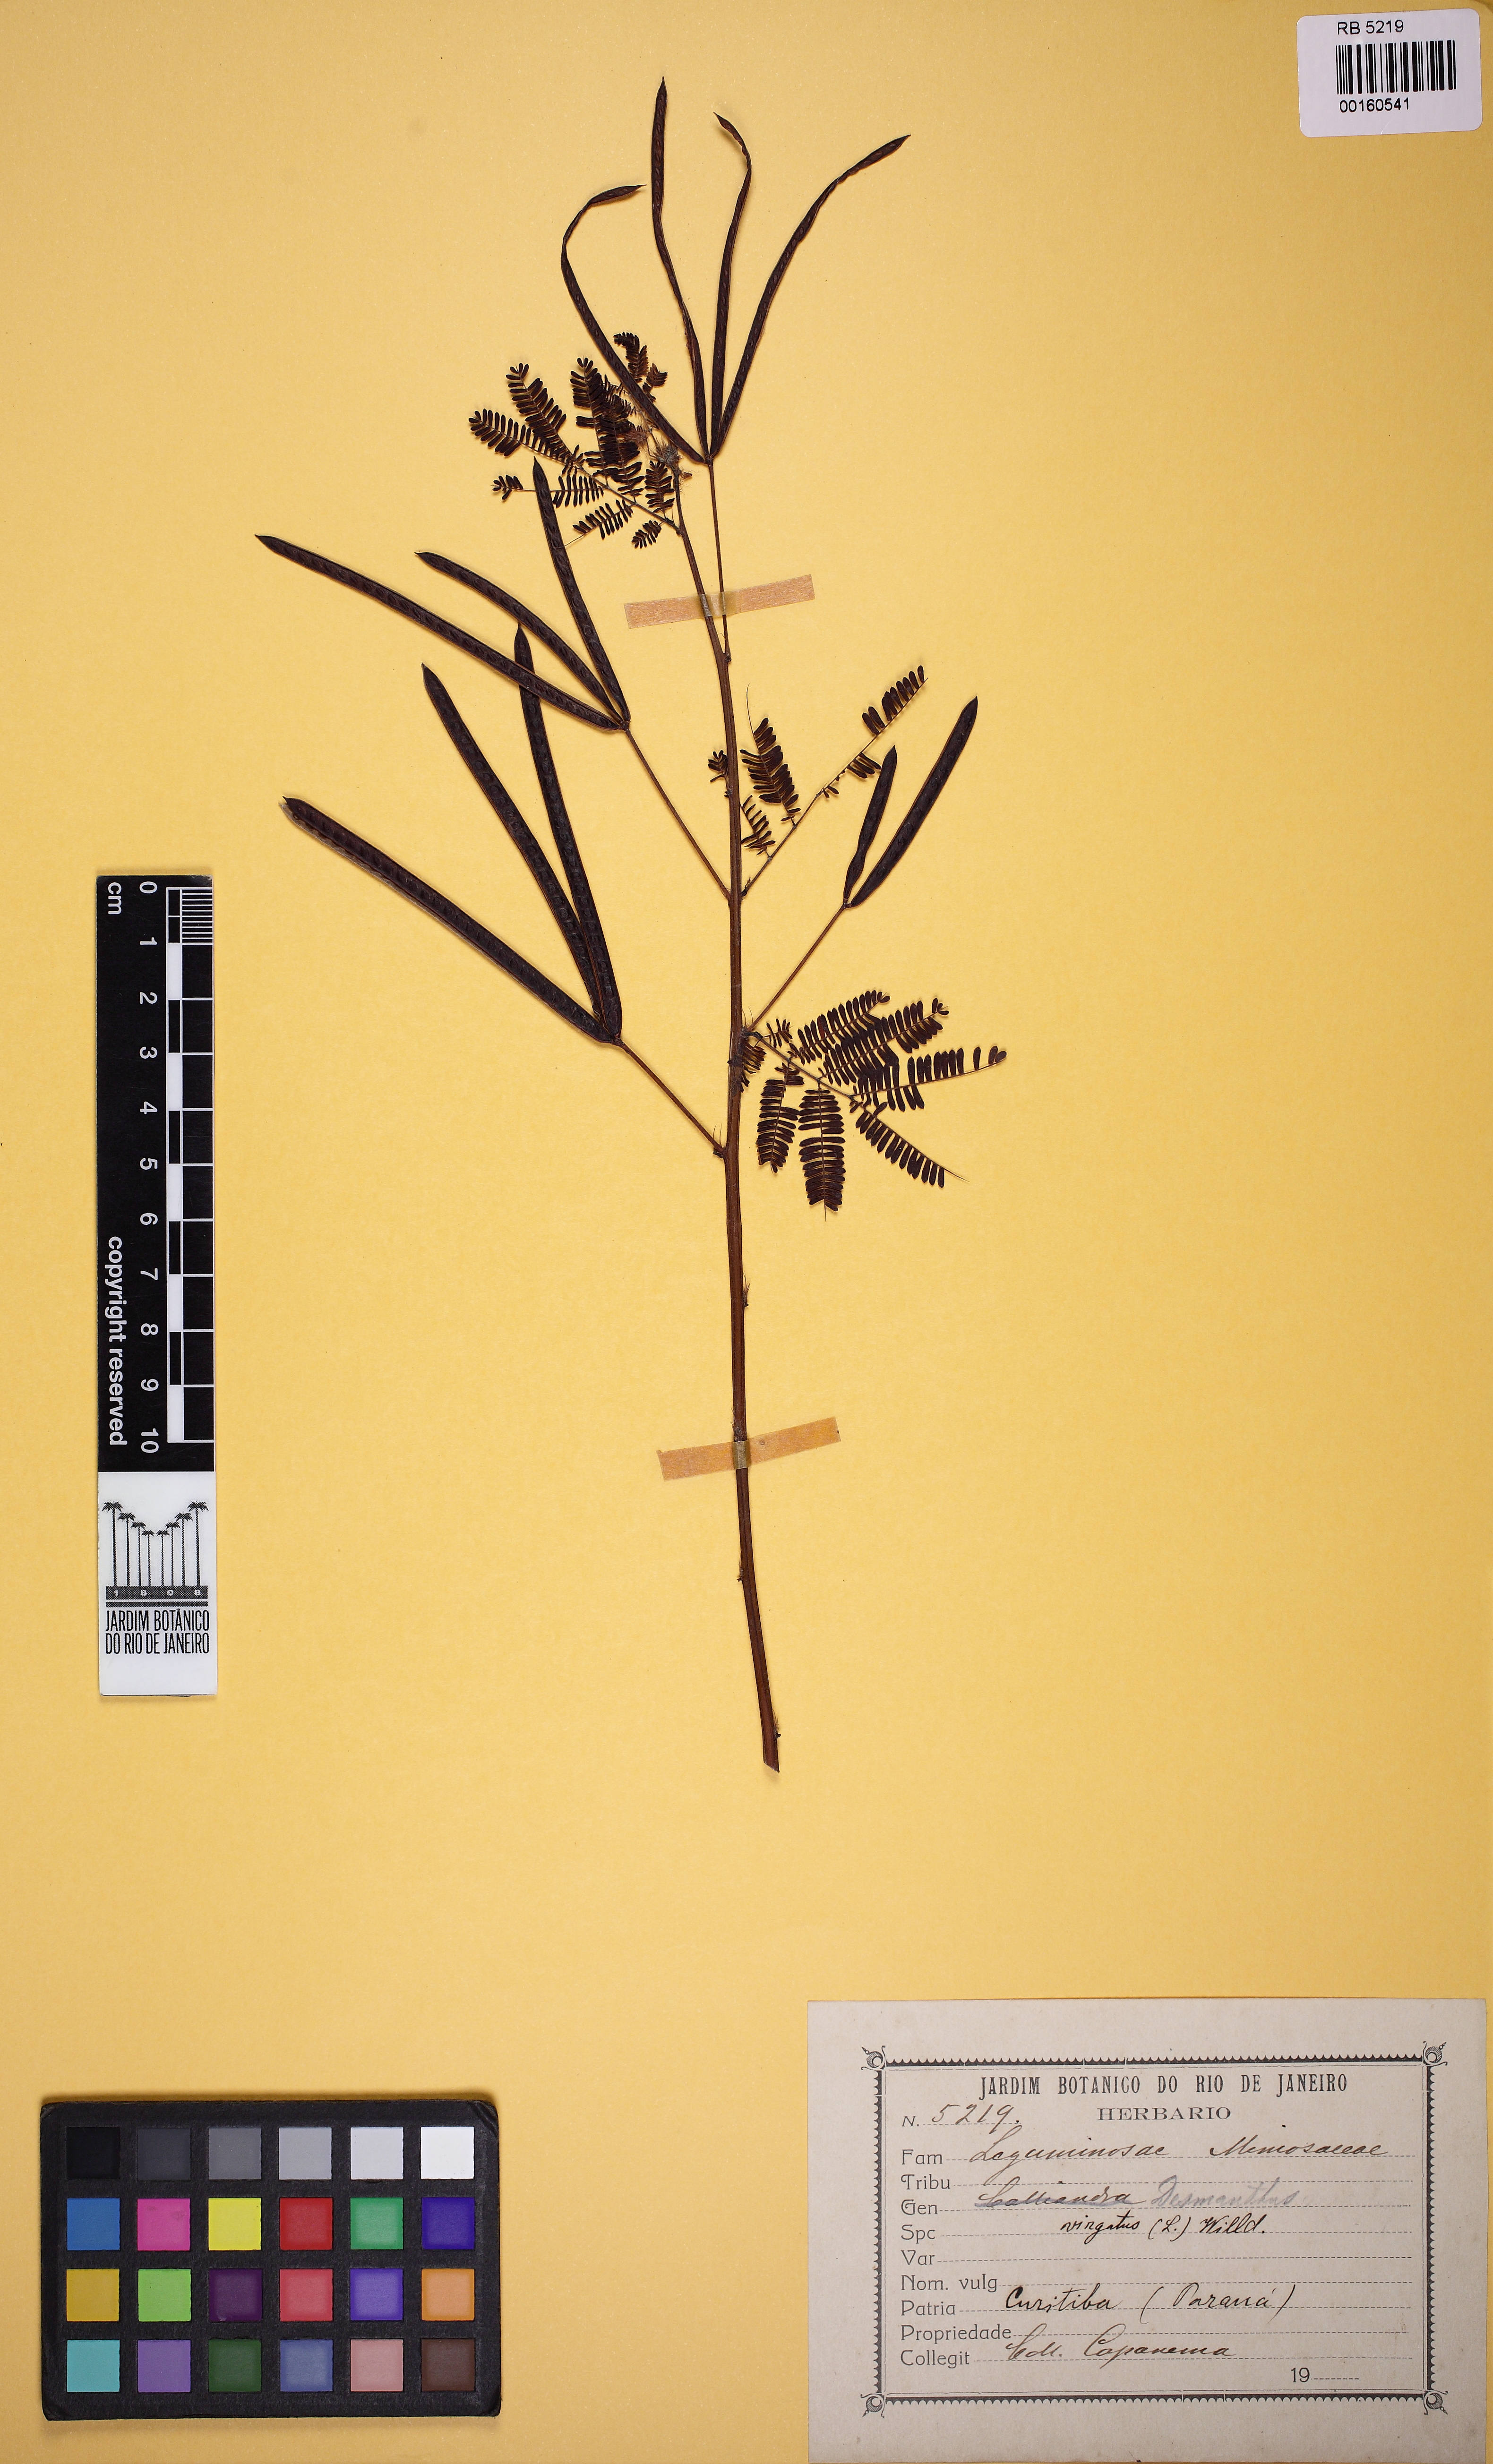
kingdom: Plantae
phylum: Tracheophyta
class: Magnoliopsida
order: Fabales
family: Fabaceae
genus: Desmanthus
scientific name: Desmanthus virgatus
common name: Wild tantan
